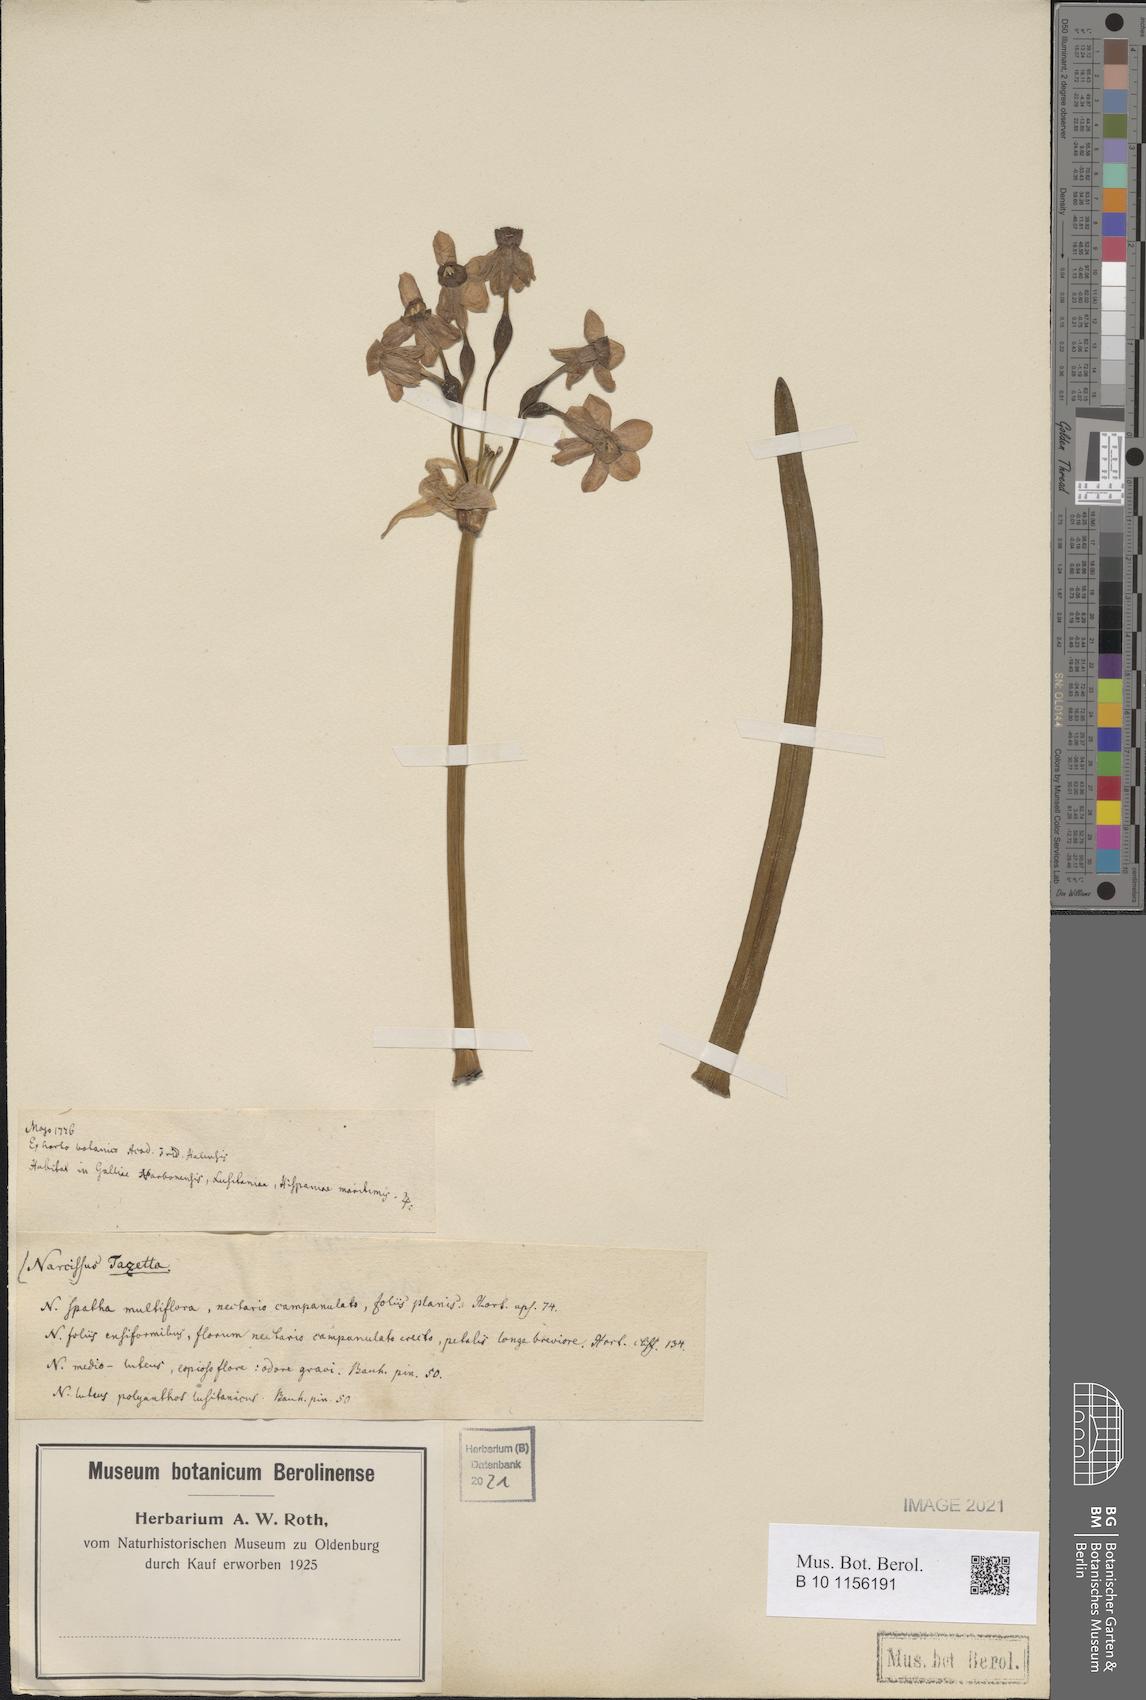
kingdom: Plantae
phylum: Tracheophyta
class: Liliopsida
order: Asparagales
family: Amaryllidaceae
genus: Narcissus
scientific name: Narcissus tazetta
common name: Bunch-flowered daffodil
